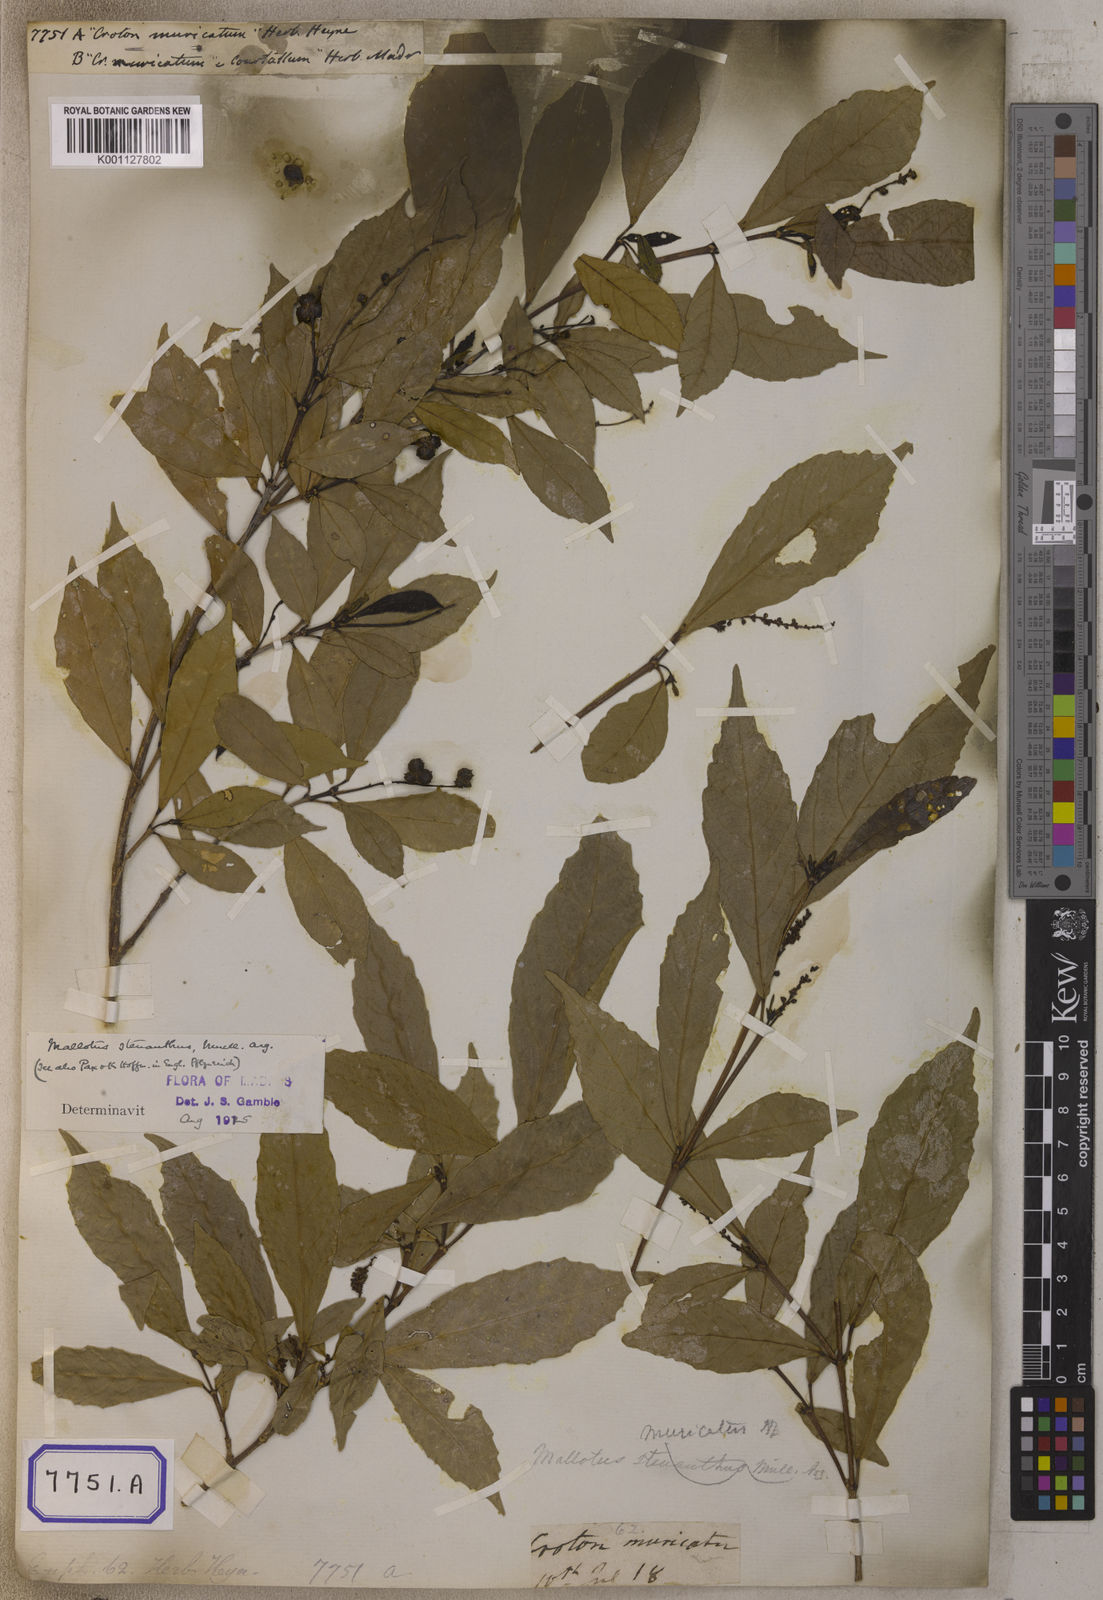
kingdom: Plantae
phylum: Tracheophyta
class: Magnoliopsida
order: Malpighiales
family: Euphorbiaceae
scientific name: Euphorbiaceae
